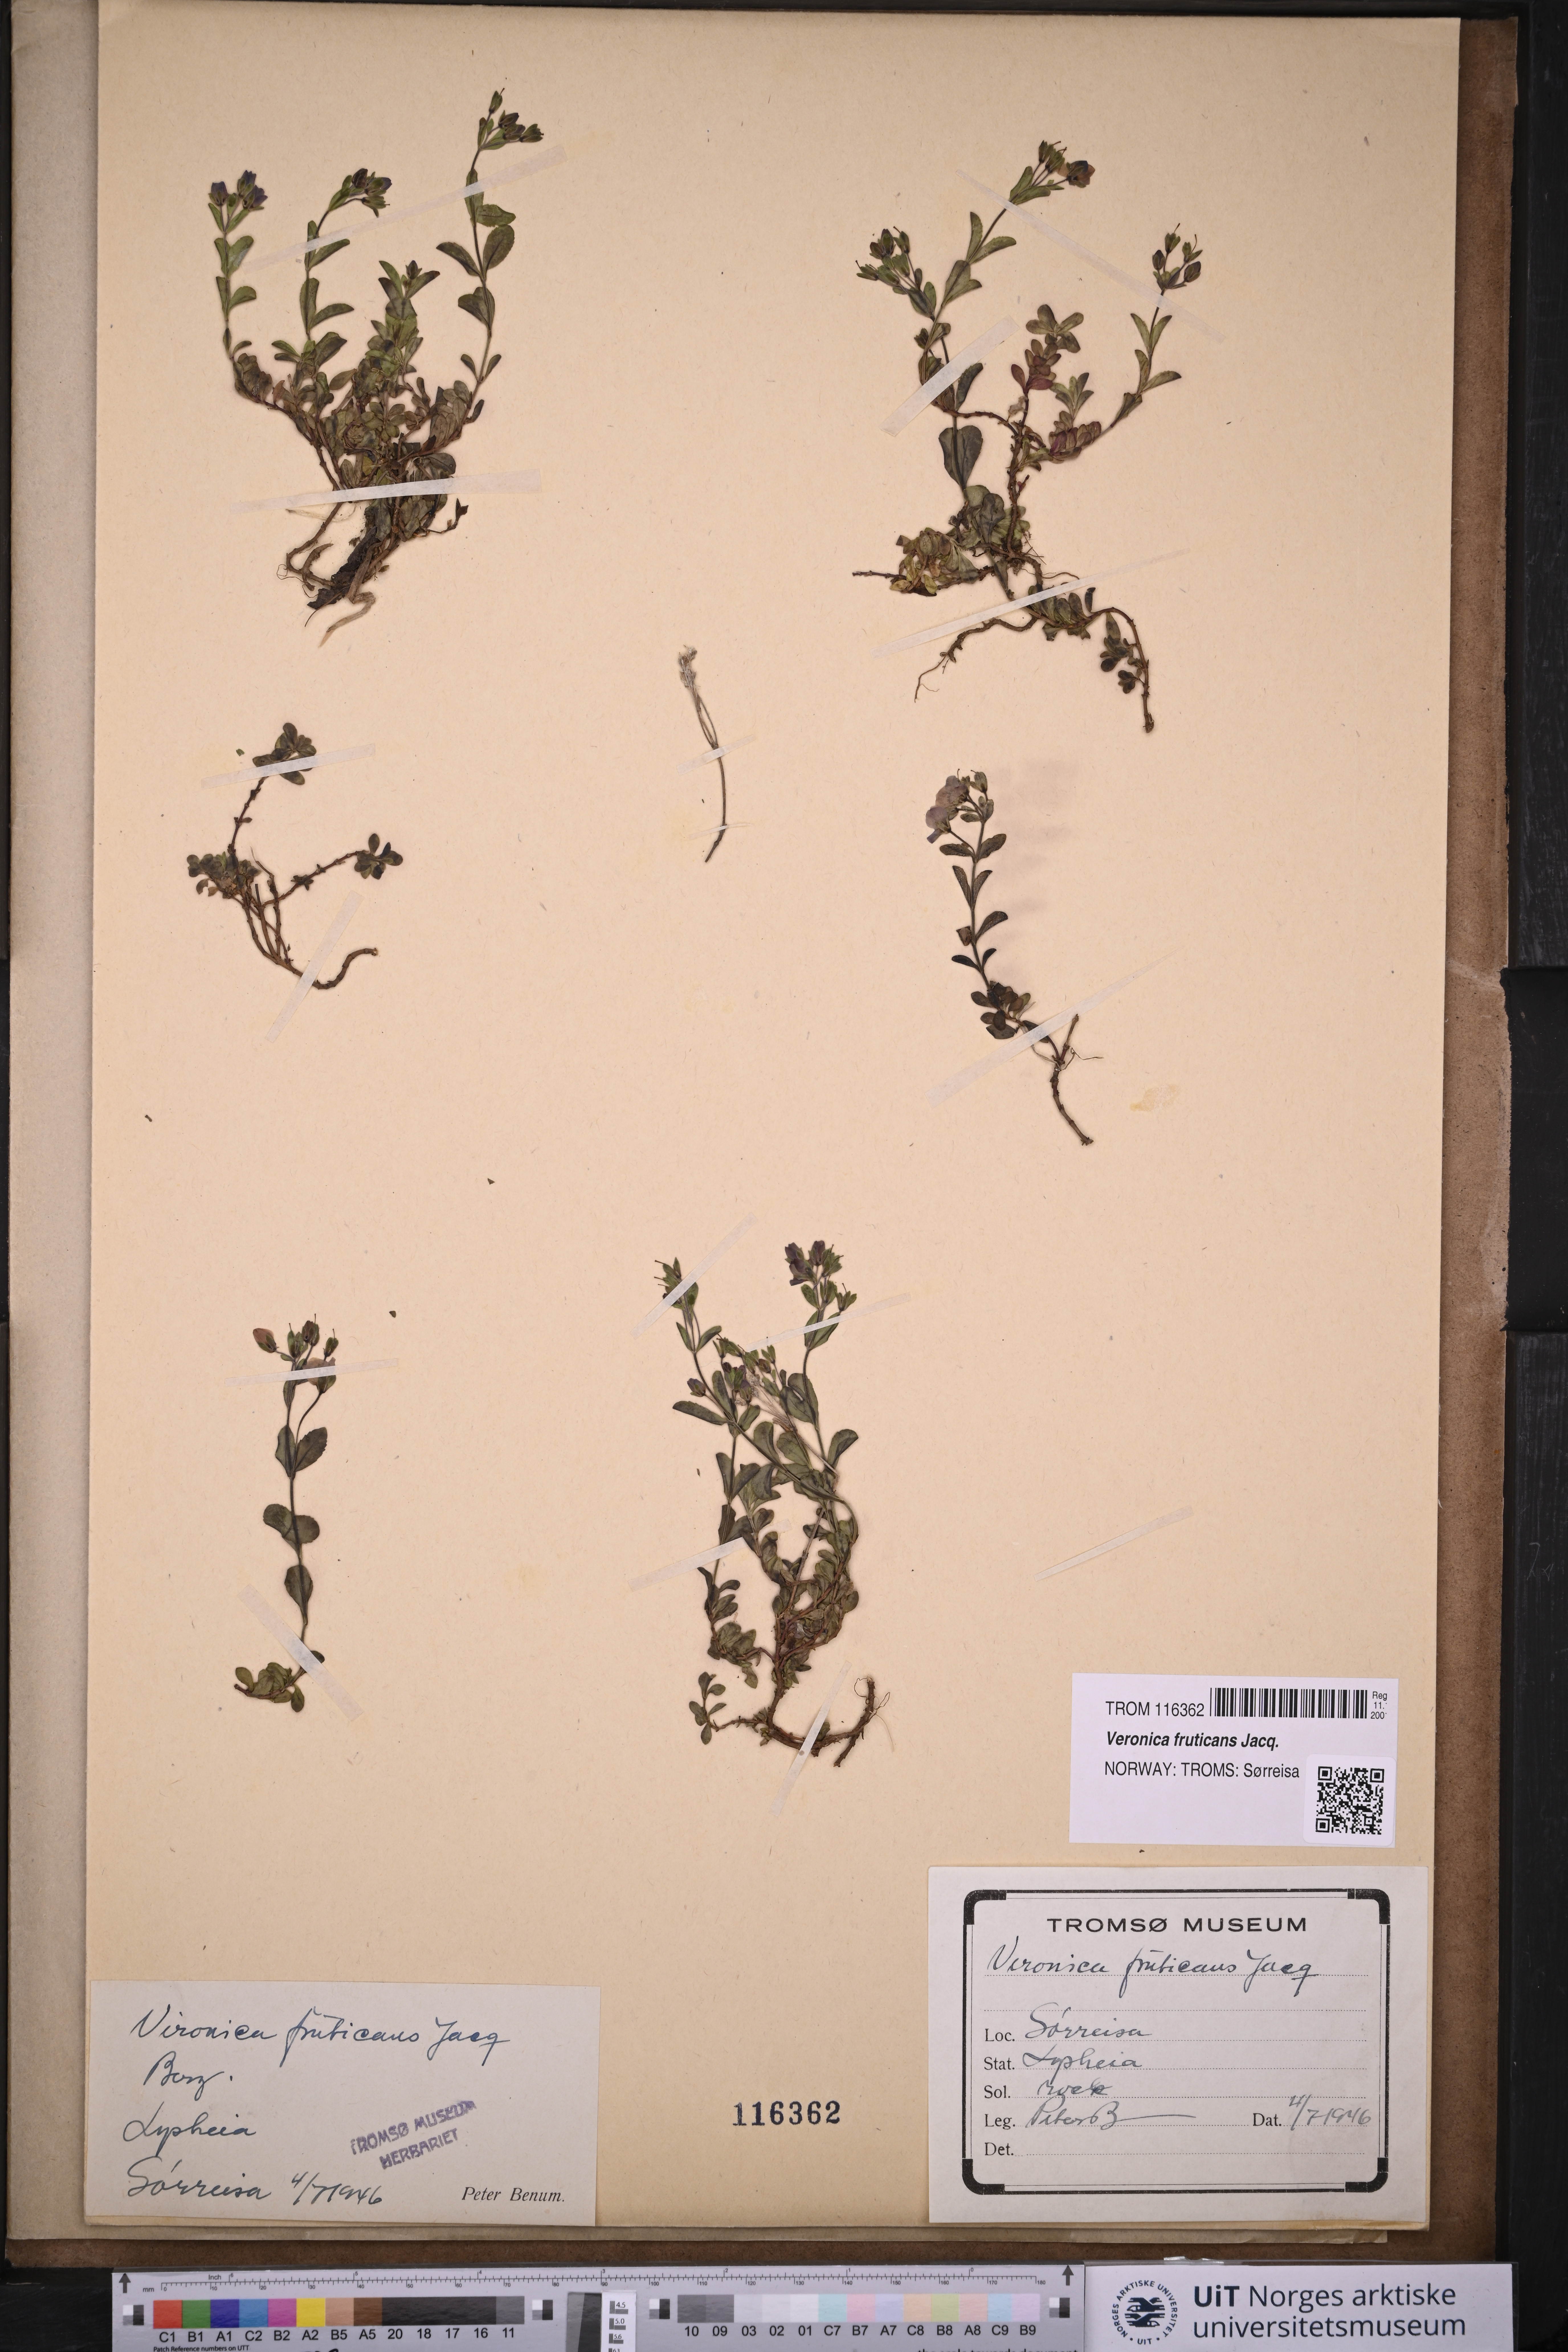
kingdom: Plantae
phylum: Tracheophyta
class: Magnoliopsida
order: Lamiales
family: Plantaginaceae
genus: Veronica
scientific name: Veronica fruticans
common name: Rock speedwell
